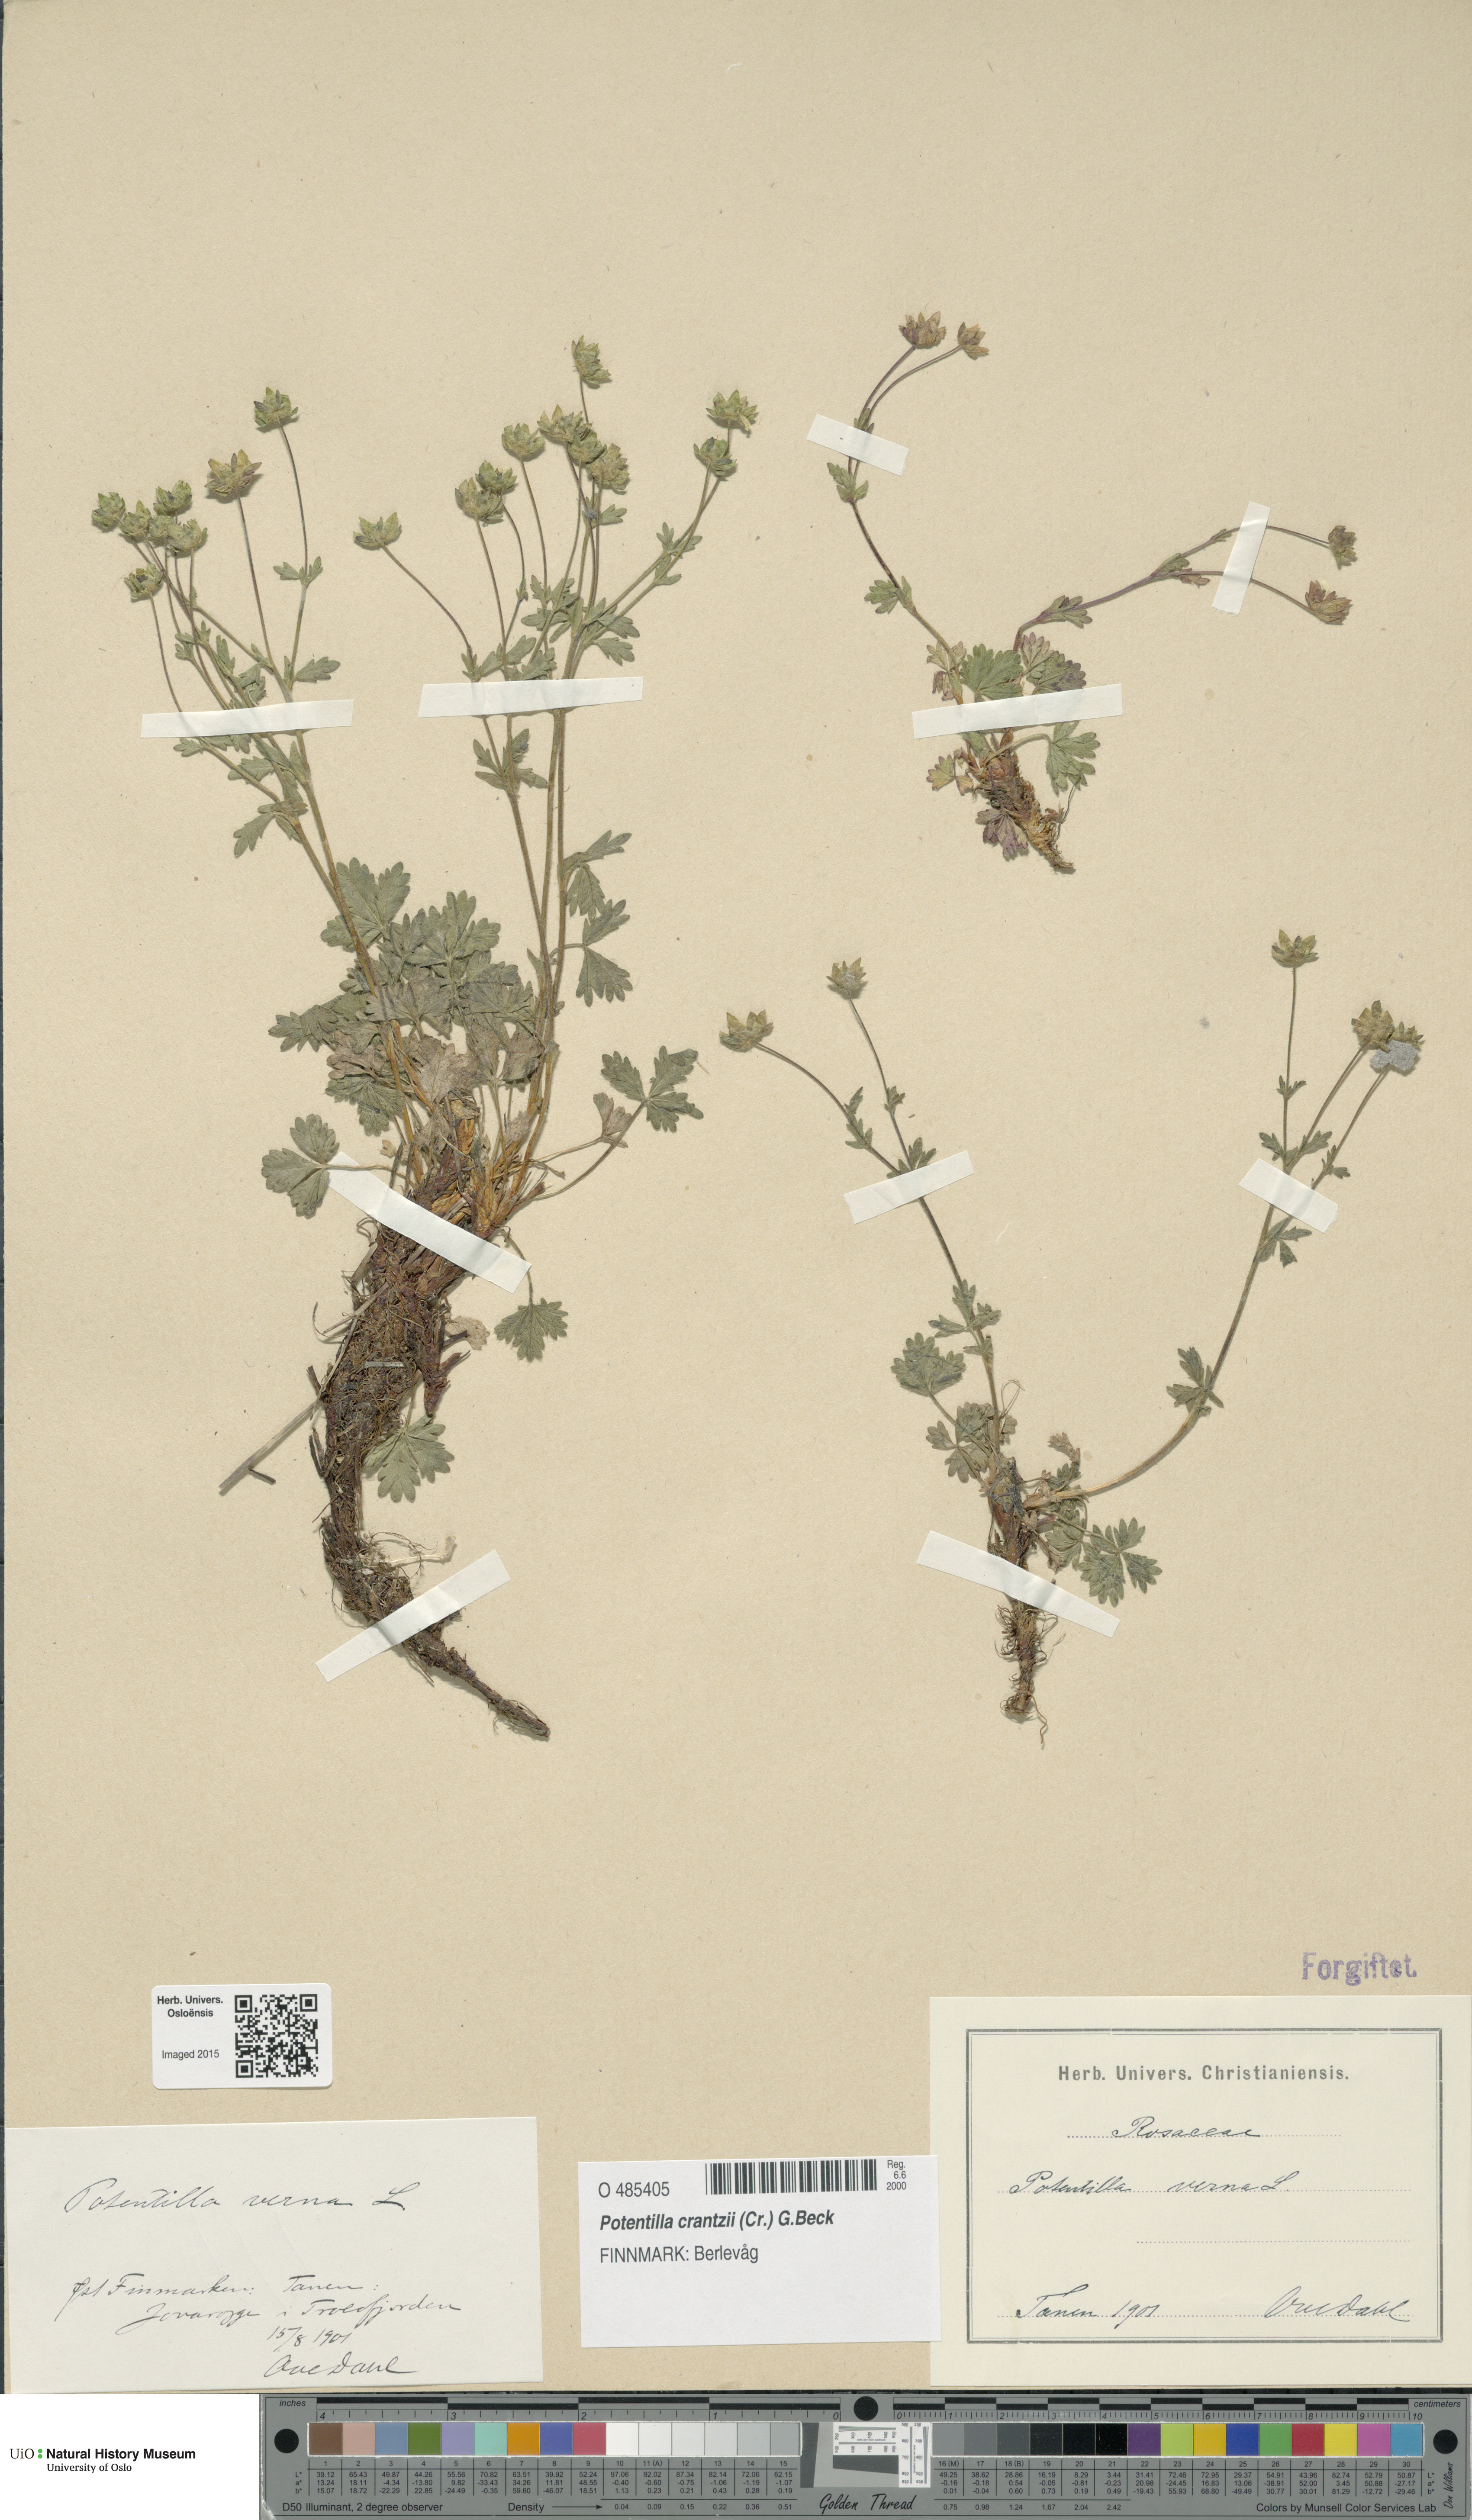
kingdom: Plantae
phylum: Tracheophyta
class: Magnoliopsida
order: Rosales
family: Rosaceae
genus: Potentilla
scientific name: Potentilla verna
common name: Spring cinquefoil
